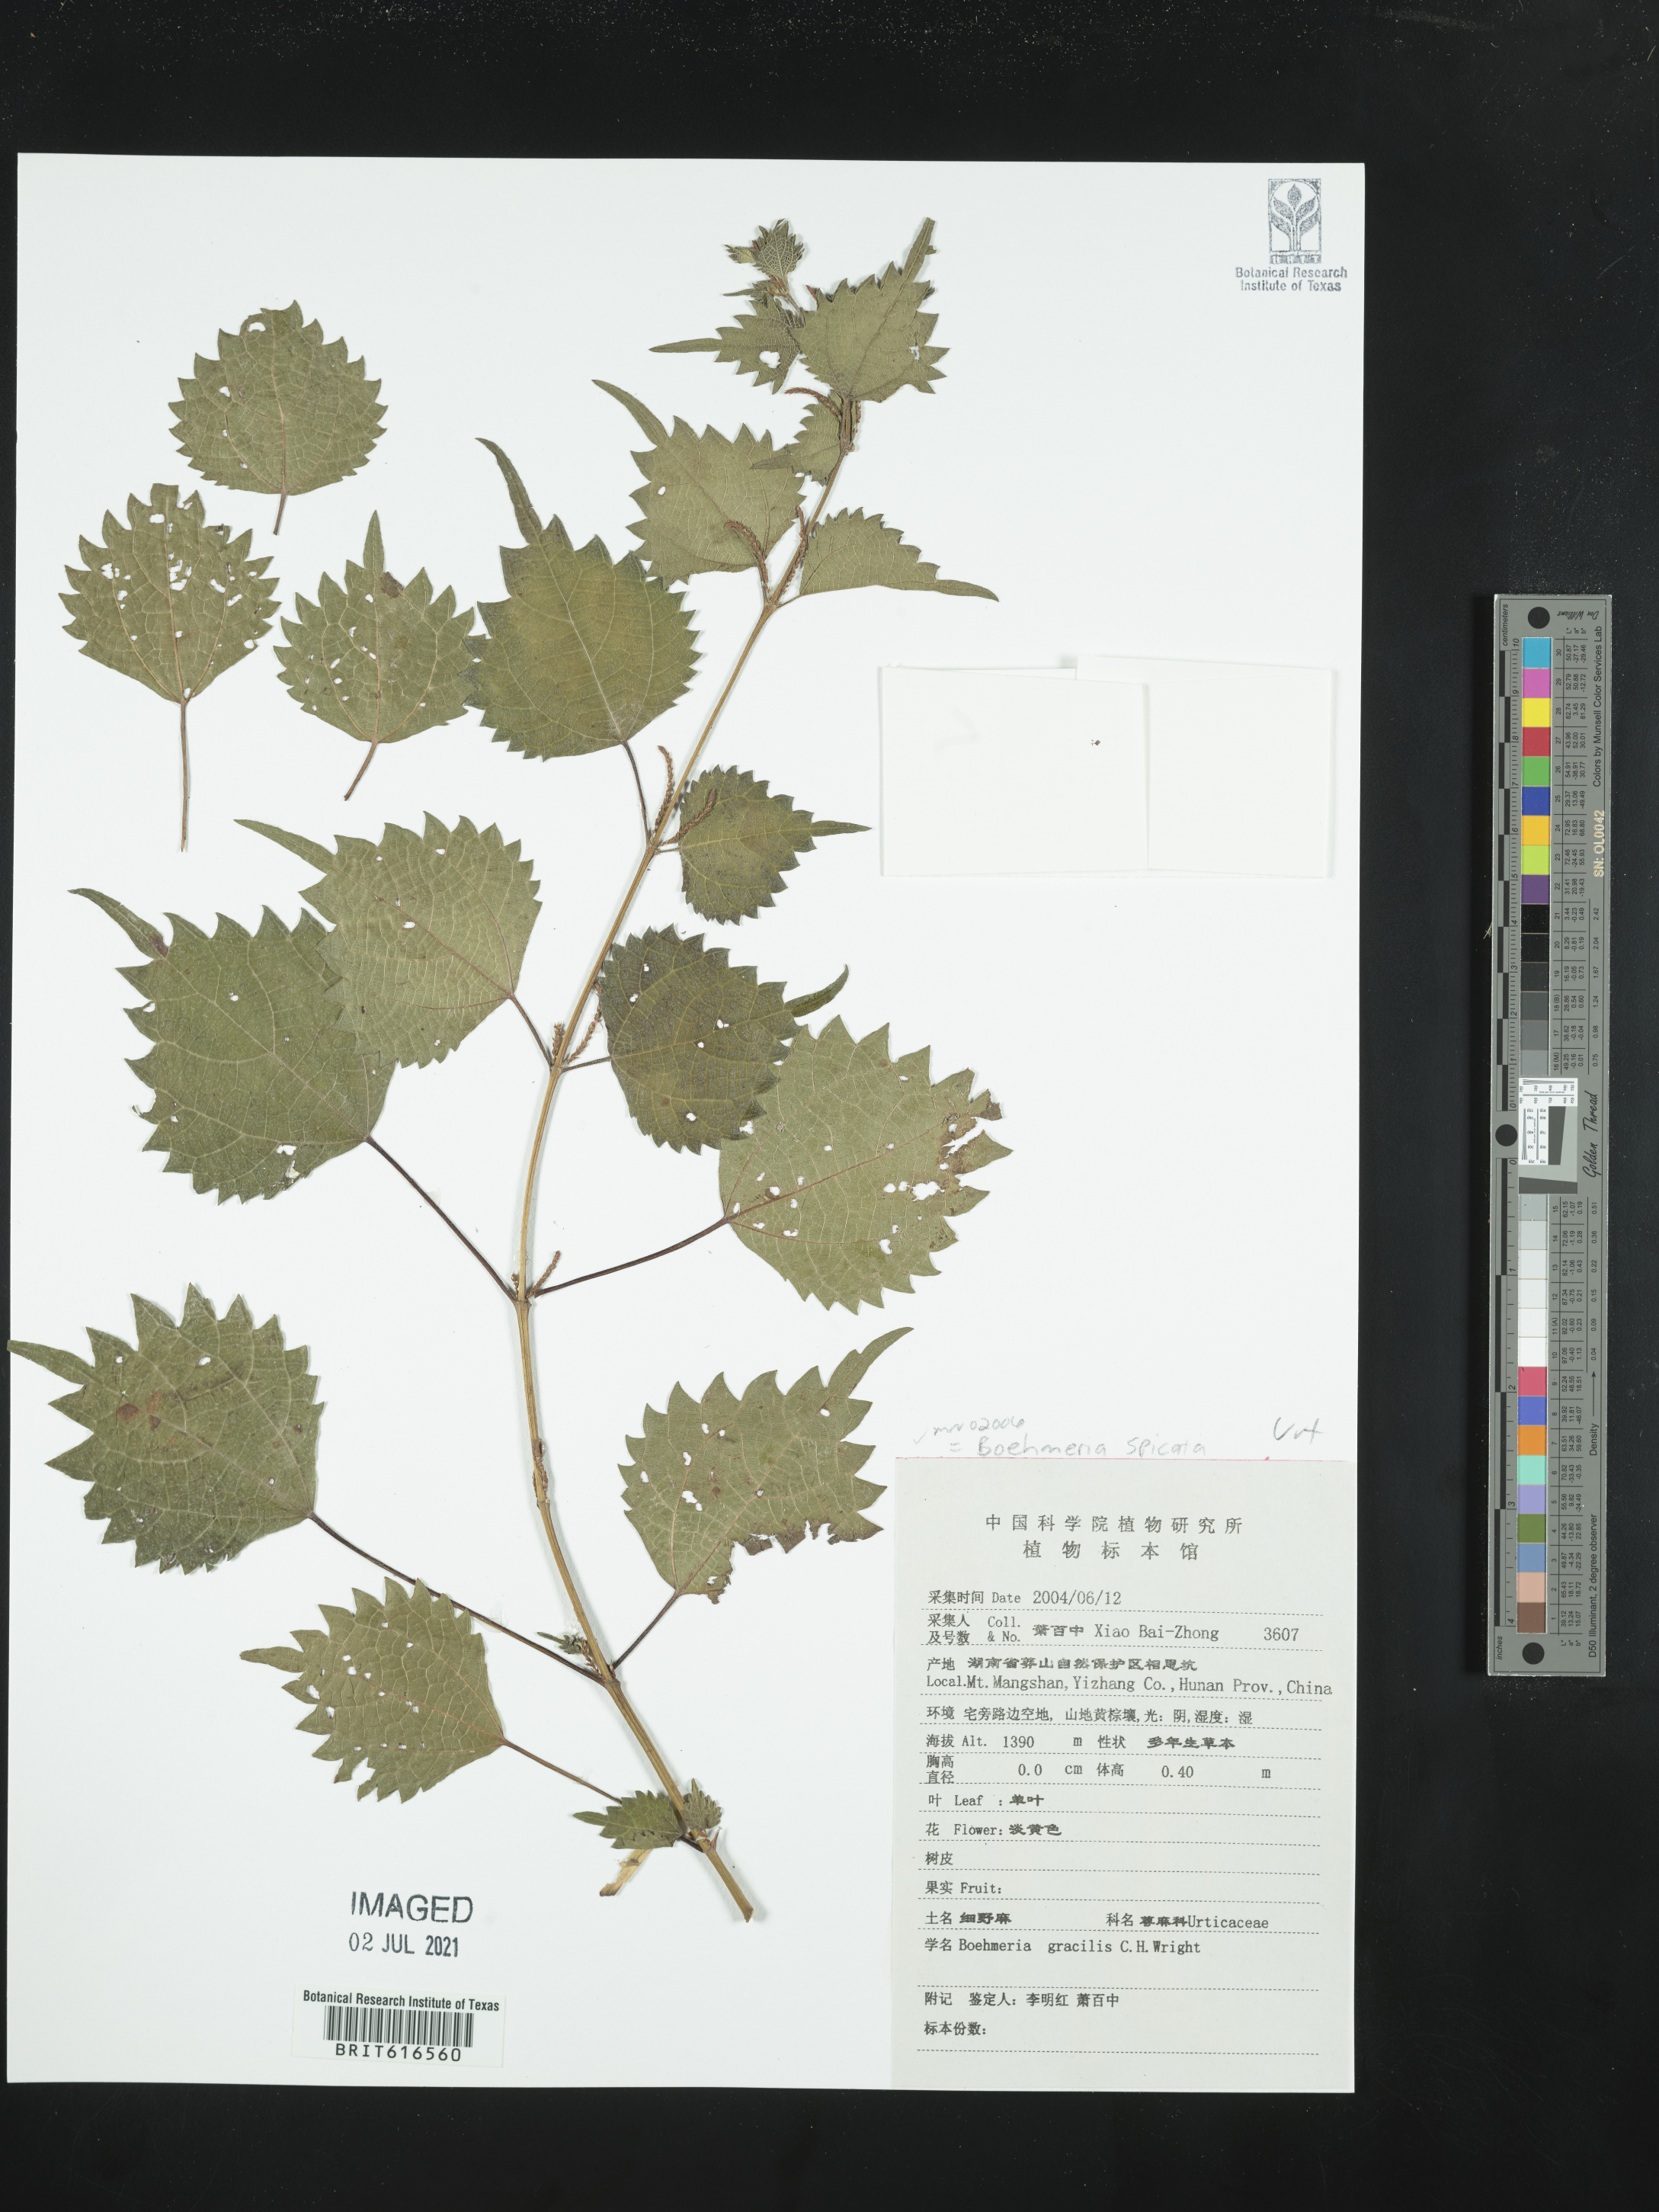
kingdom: Plantae
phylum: Tracheophyta
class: Magnoliopsida
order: Rosales
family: Urticaceae
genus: Boehmeria
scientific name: Boehmeria japonica
